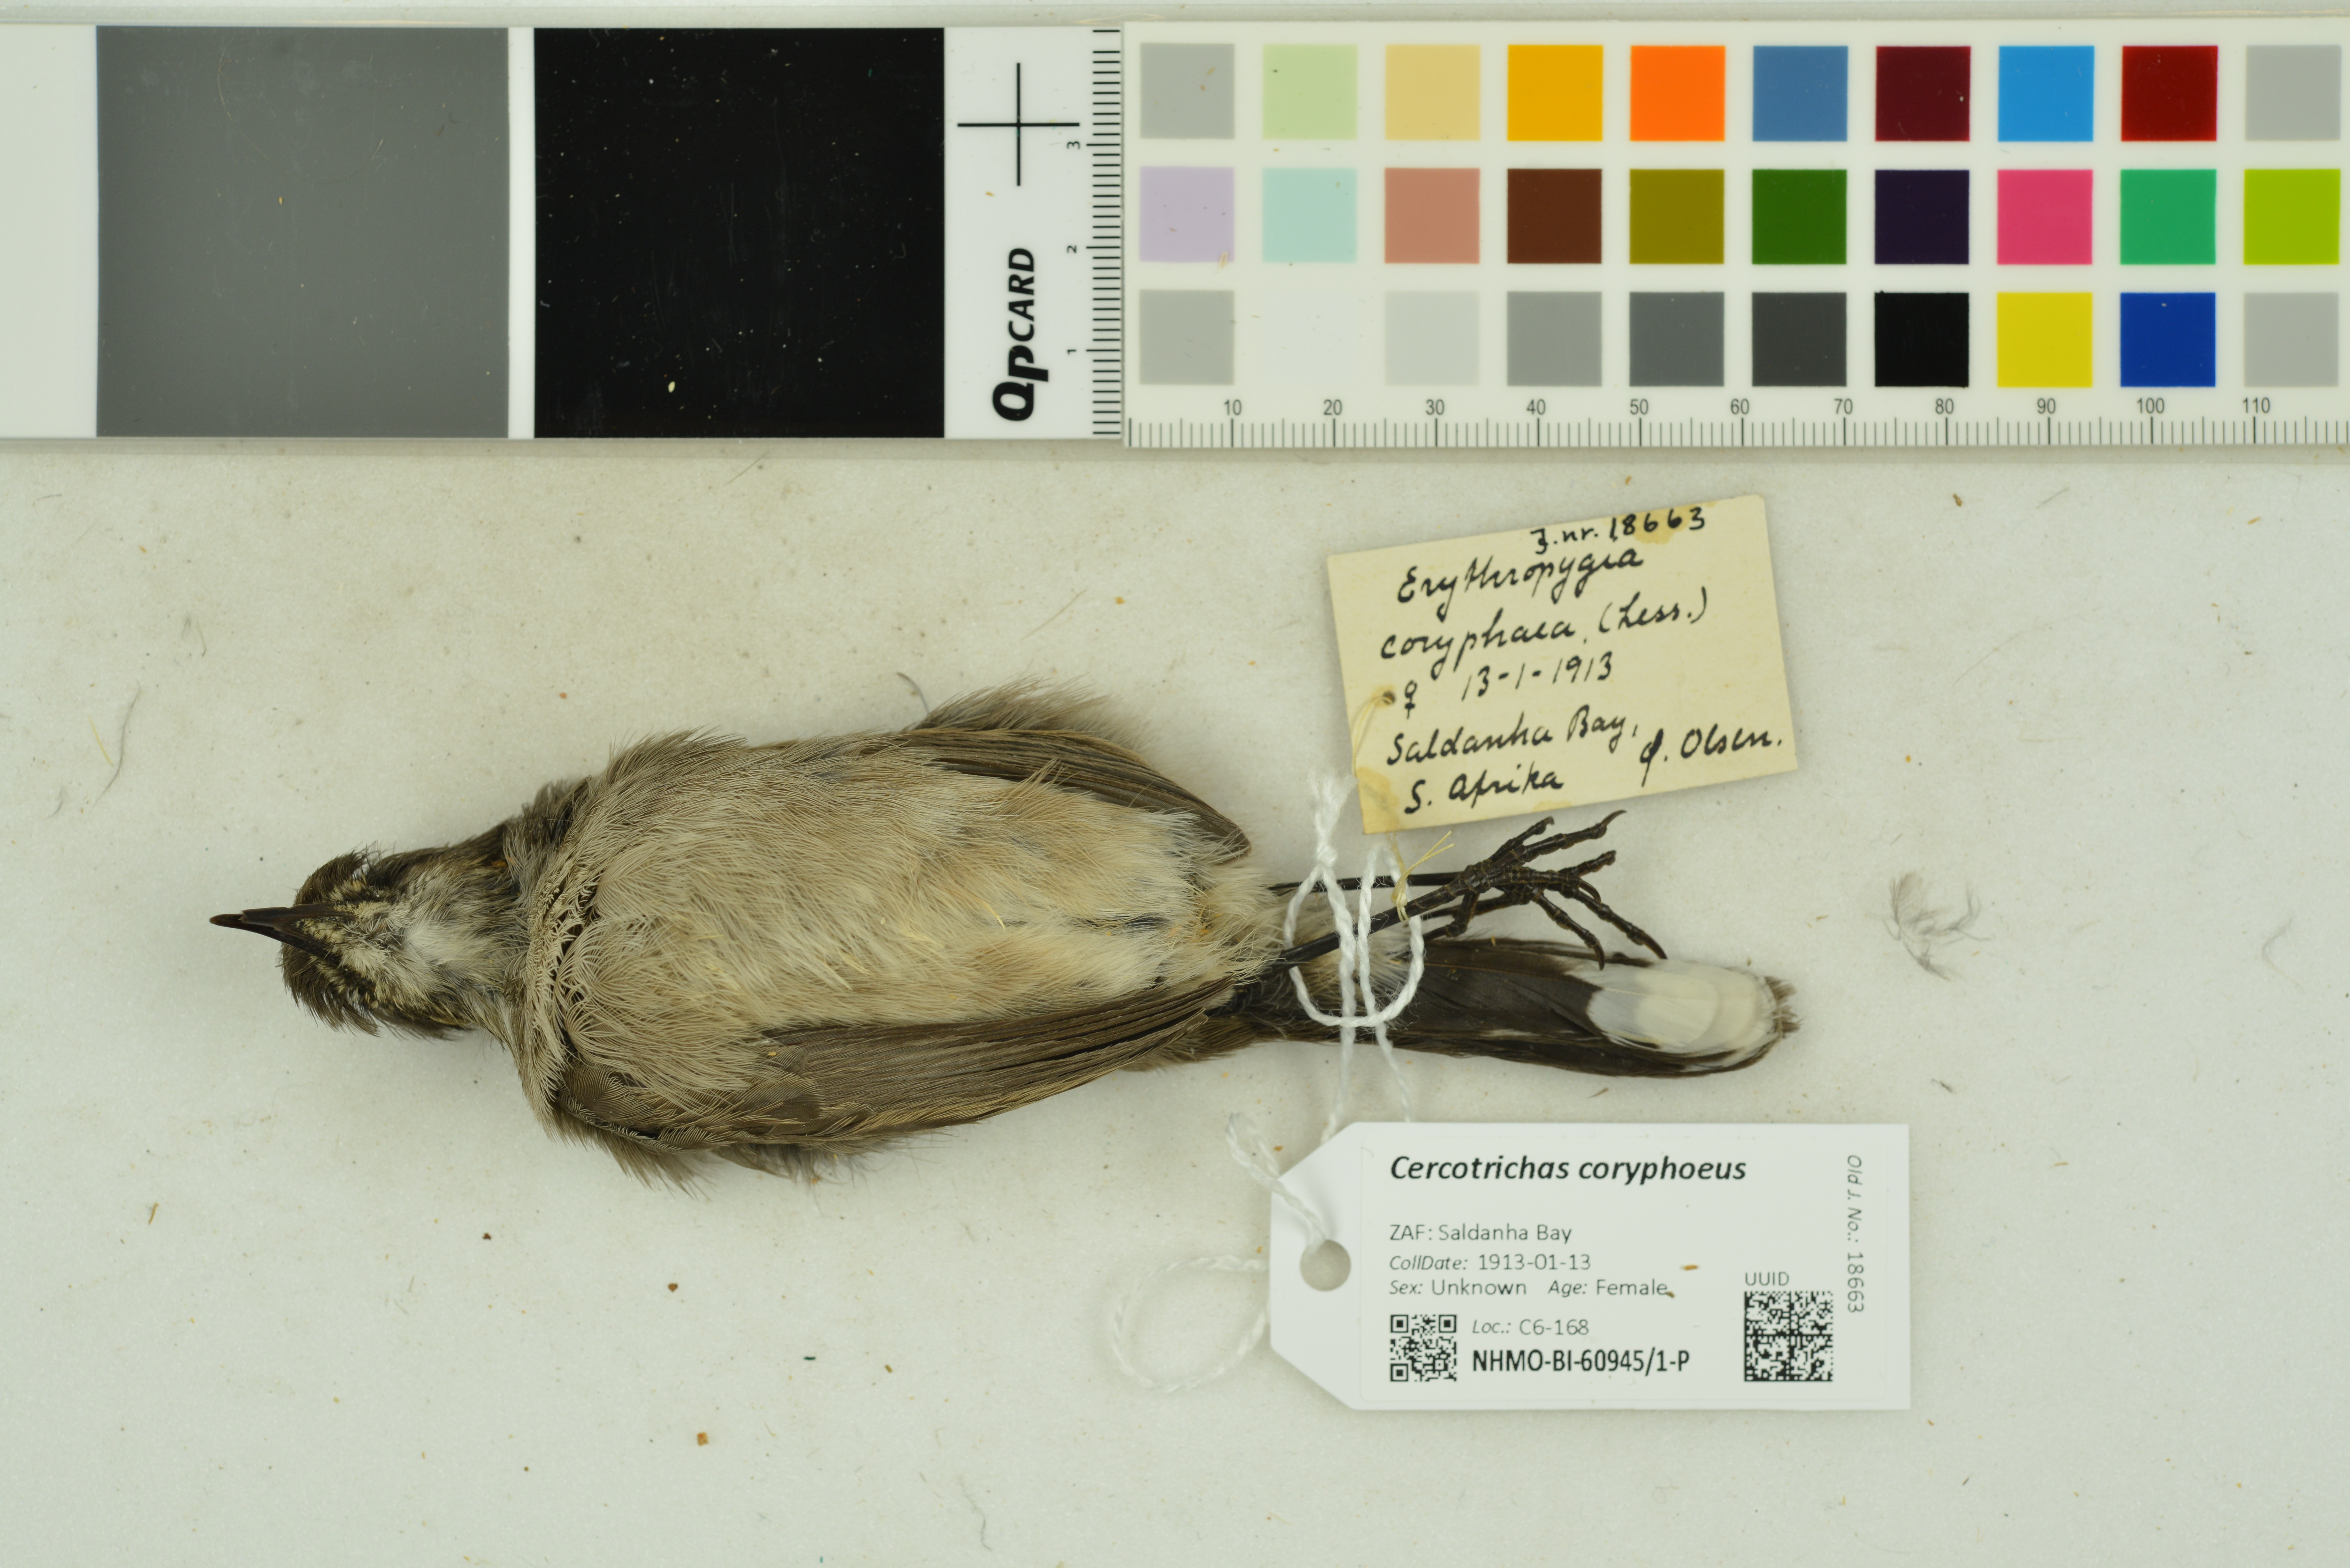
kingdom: Animalia
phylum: Chordata
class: Aves
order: Passeriformes
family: Muscicapidae
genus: Erythropygia
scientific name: Erythropygia coryphoeus
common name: Karoo scrub robin
